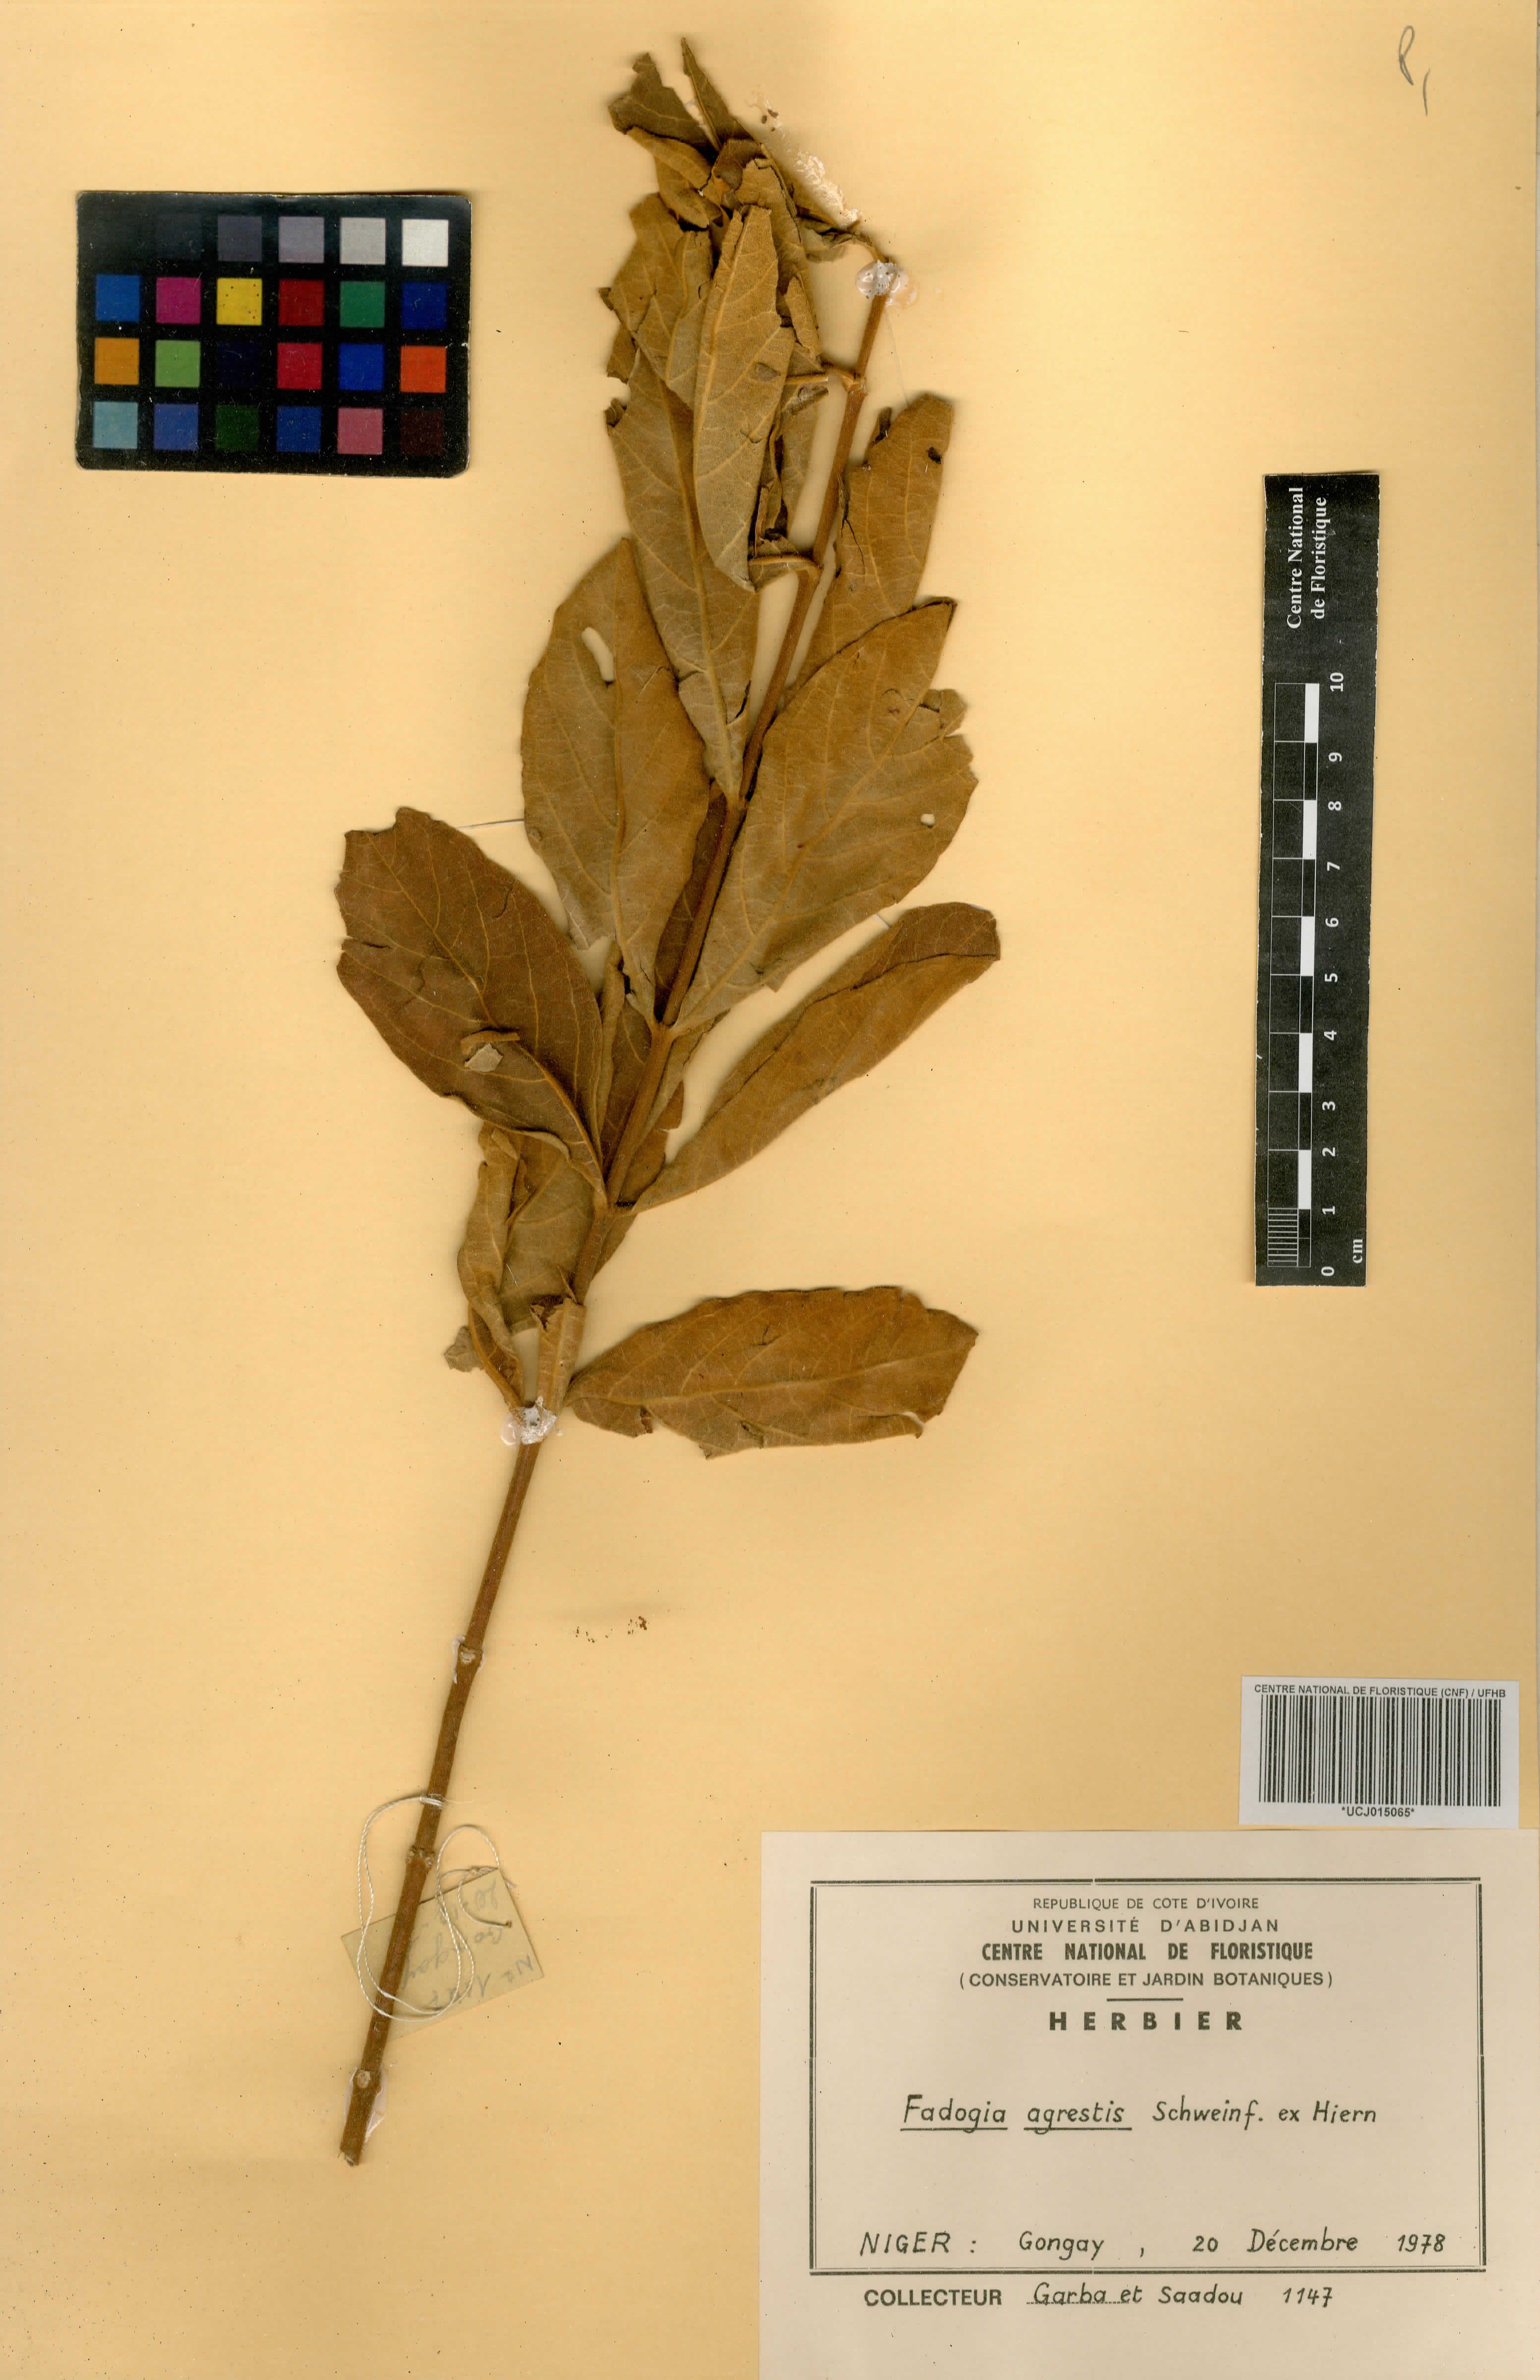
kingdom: Plantae
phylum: Tracheophyta
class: Magnoliopsida
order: Gentianales
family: Rubiaceae
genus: Vangueria
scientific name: Vangueria agrestis
